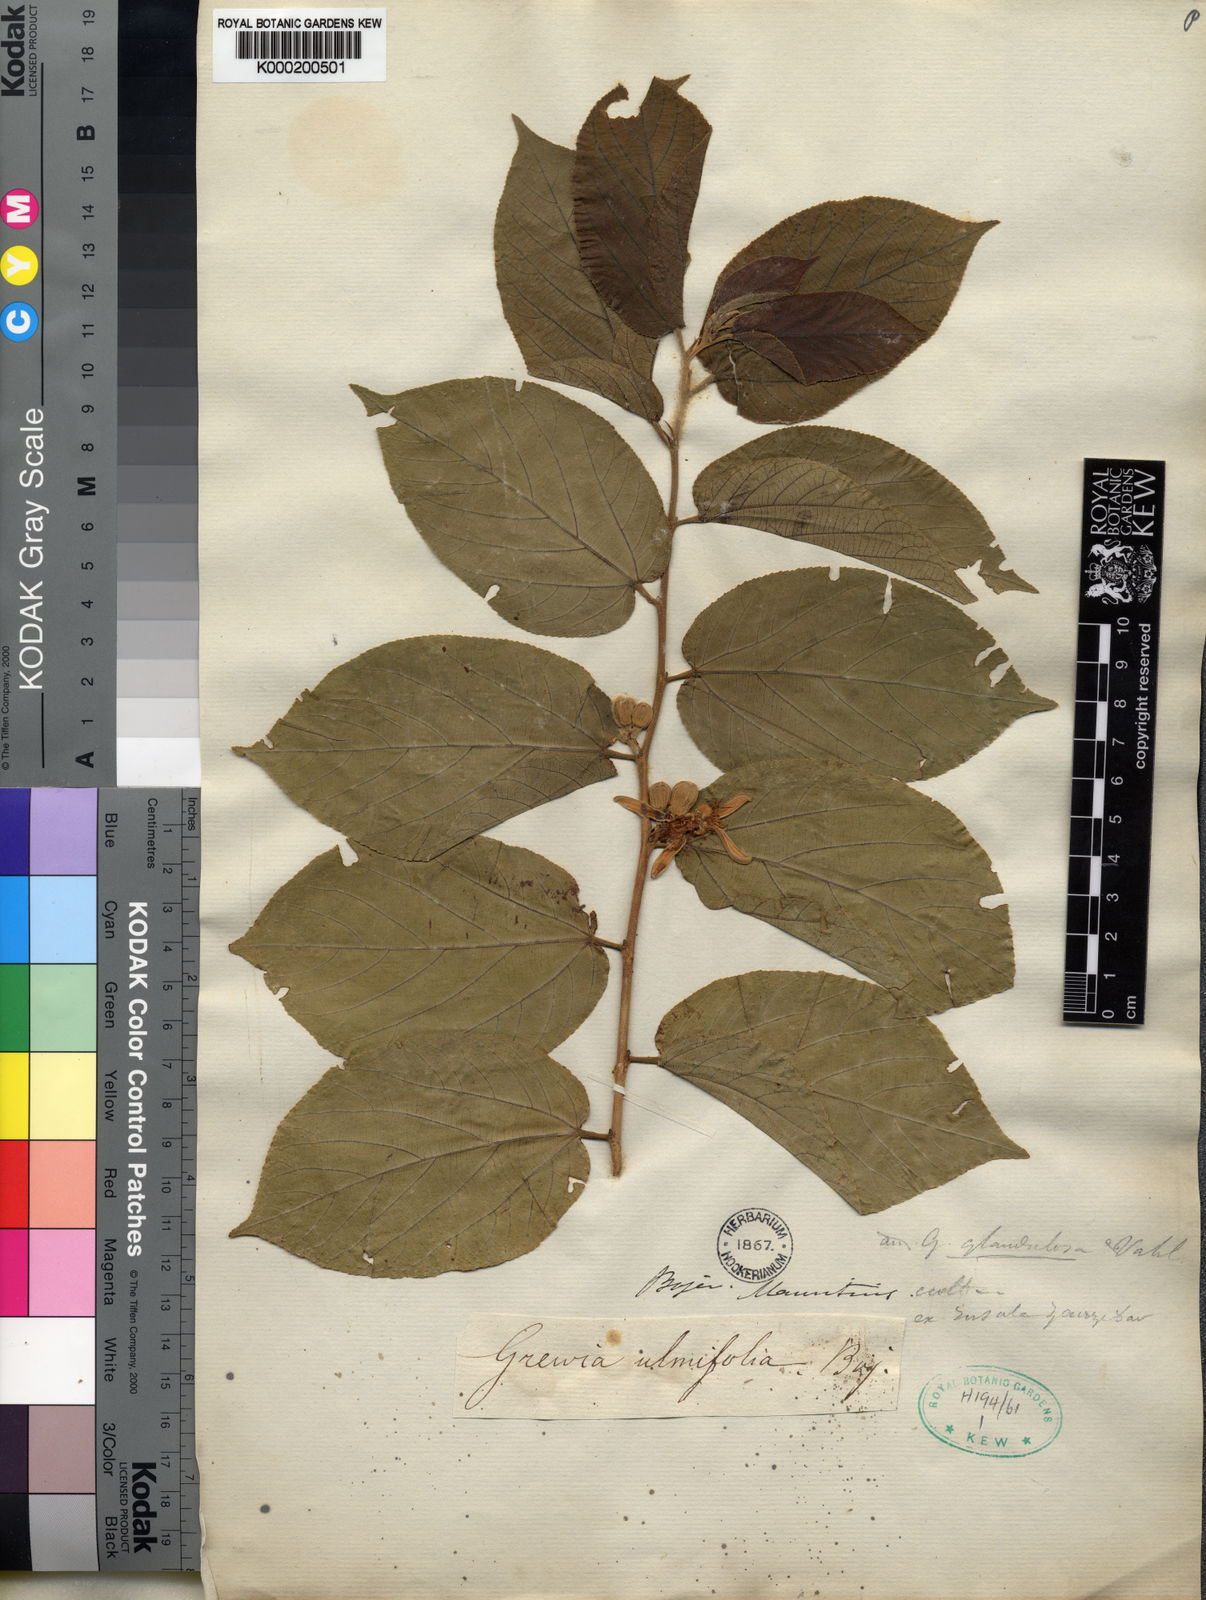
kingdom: Plantae
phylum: Tracheophyta
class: Magnoliopsida
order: Malvales
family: Malvaceae
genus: Grewia
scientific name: Grewia glandulosa
